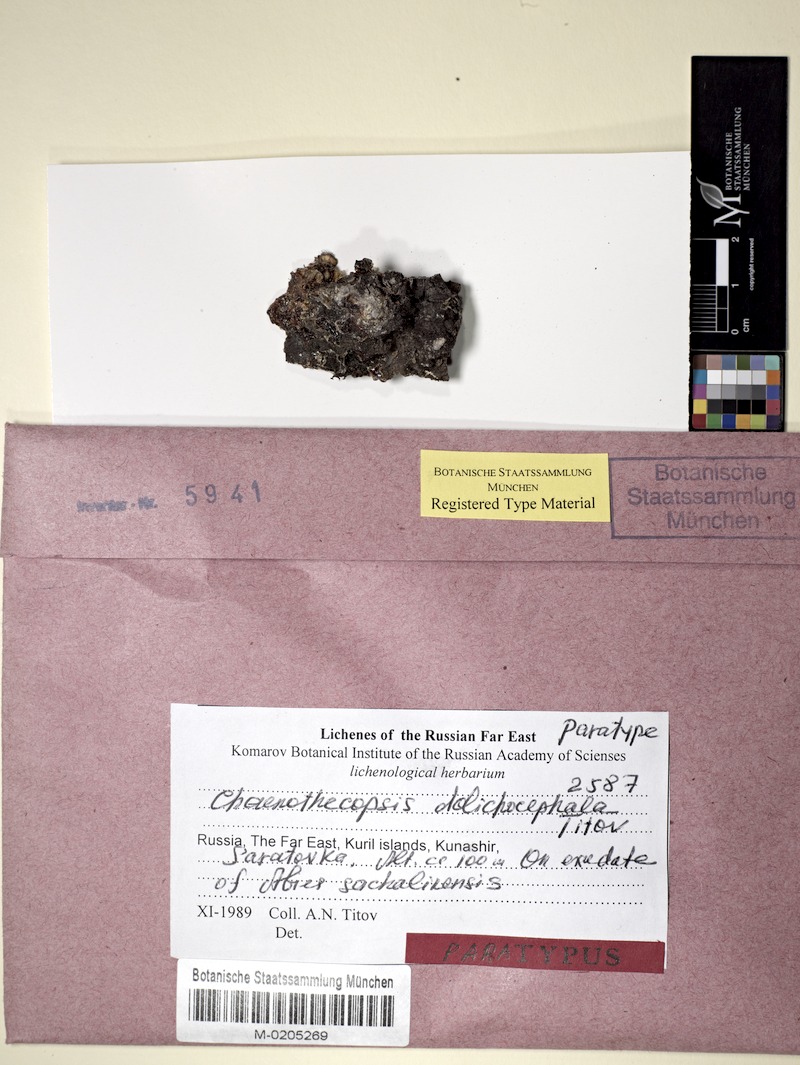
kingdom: Fungi
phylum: Ascomycota
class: Eurotiomycetes
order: Mycocaliciales
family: Mycocaliciaceae
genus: Chaenothecopsis
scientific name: Chaenothecopsis
